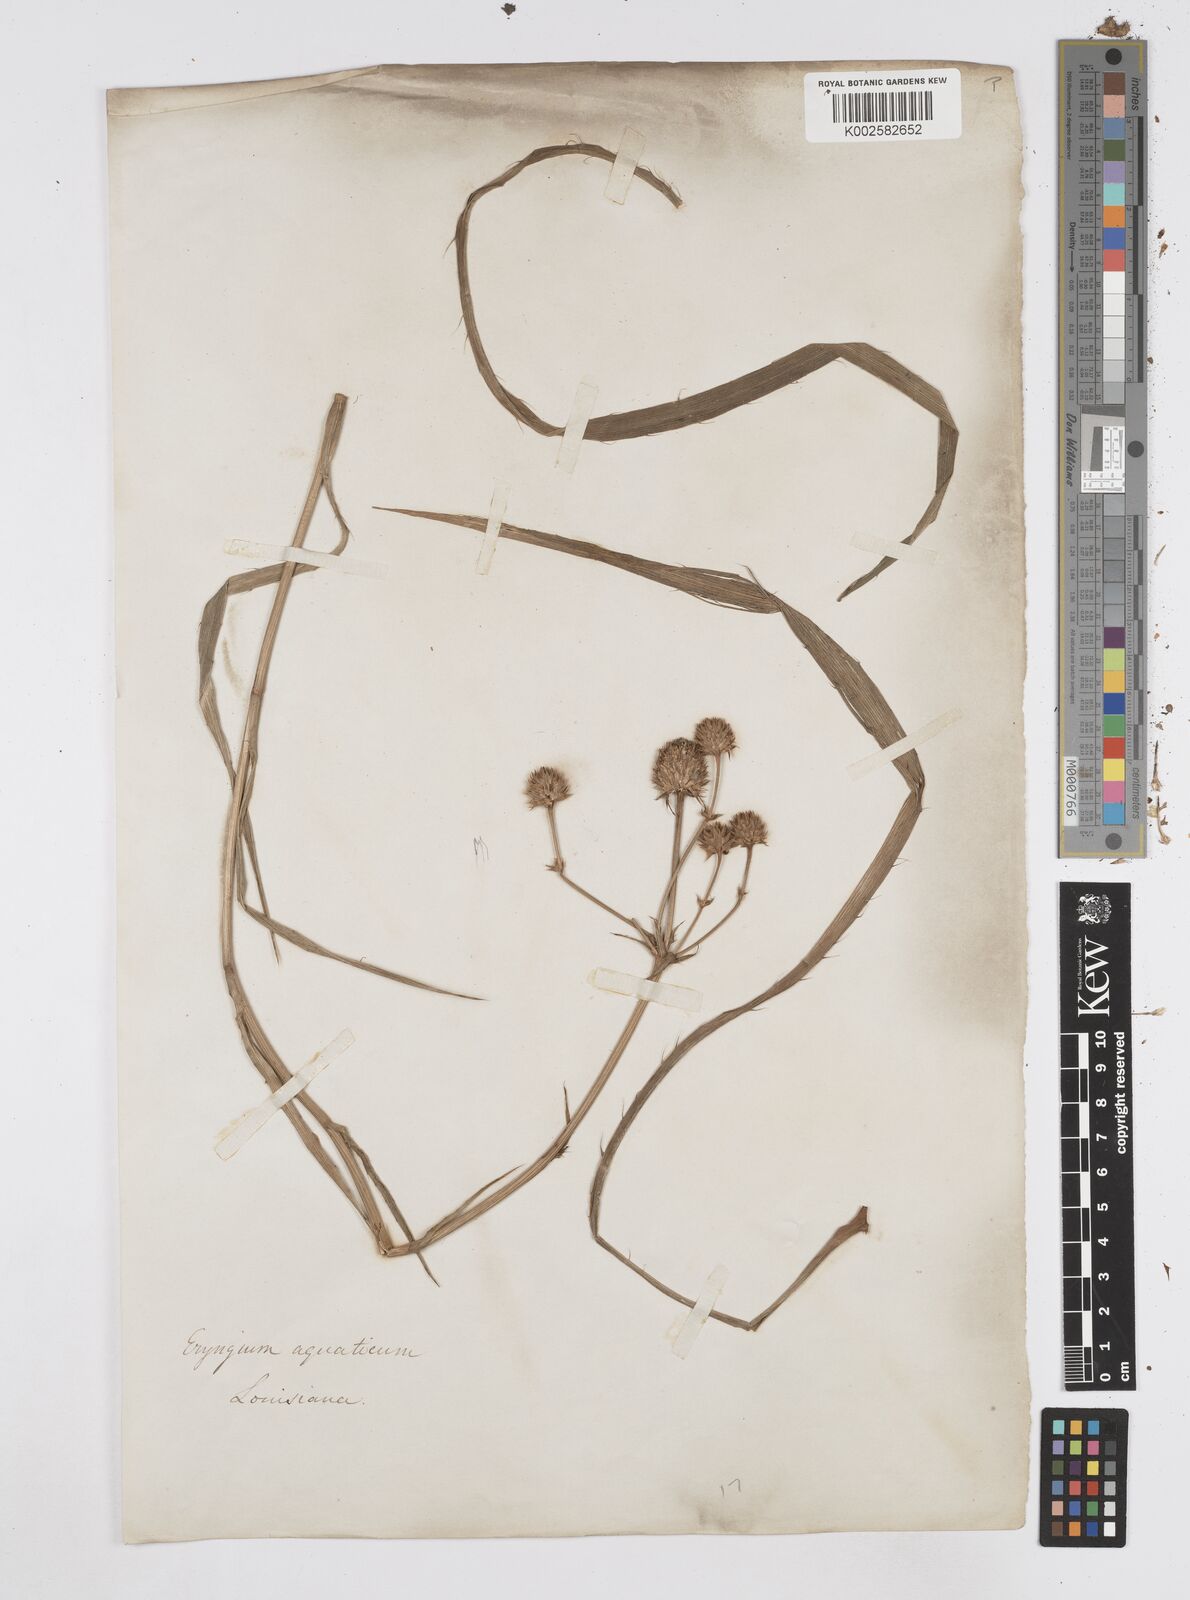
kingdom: Plantae
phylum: Tracheophyta
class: Magnoliopsida
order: Apiales
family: Apiaceae
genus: Eryngium
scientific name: Eryngium yuccifolium
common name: Button eryngo
